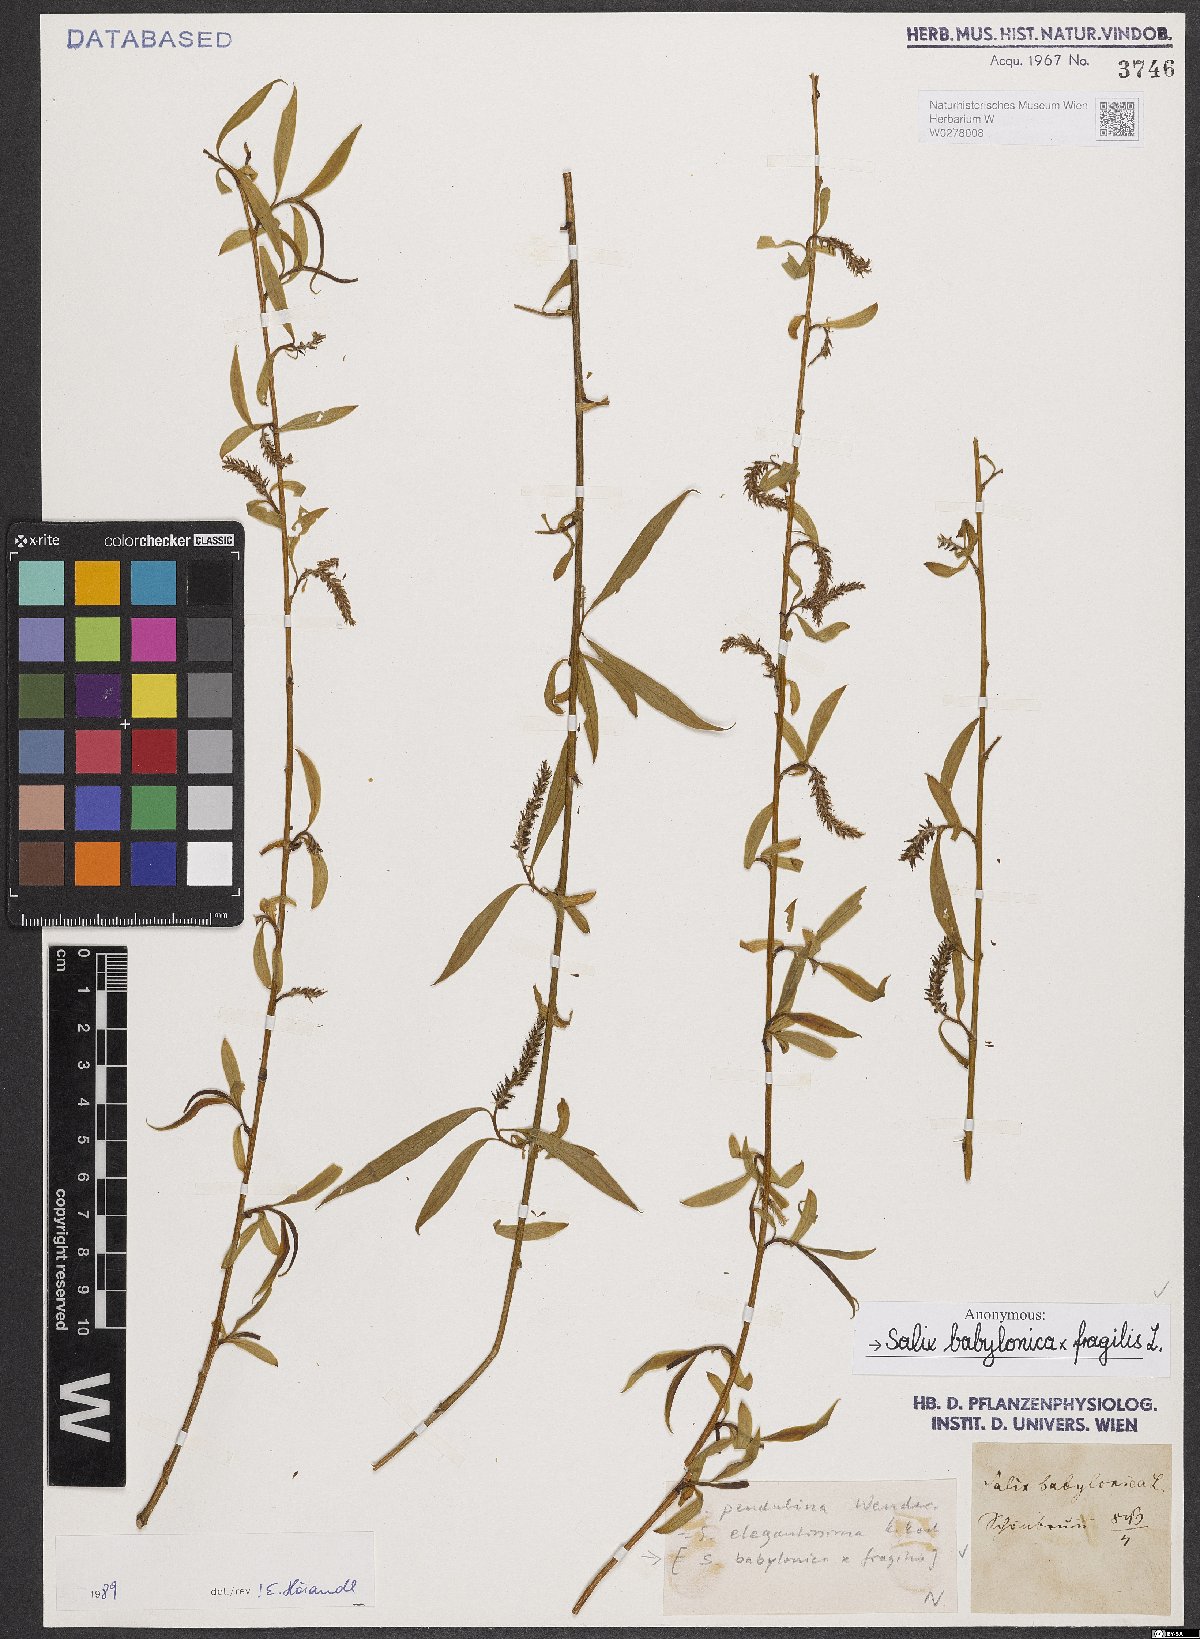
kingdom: Plantae
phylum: Tracheophyta
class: Magnoliopsida
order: Malpighiales
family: Salicaceae
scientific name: Salicaceae
